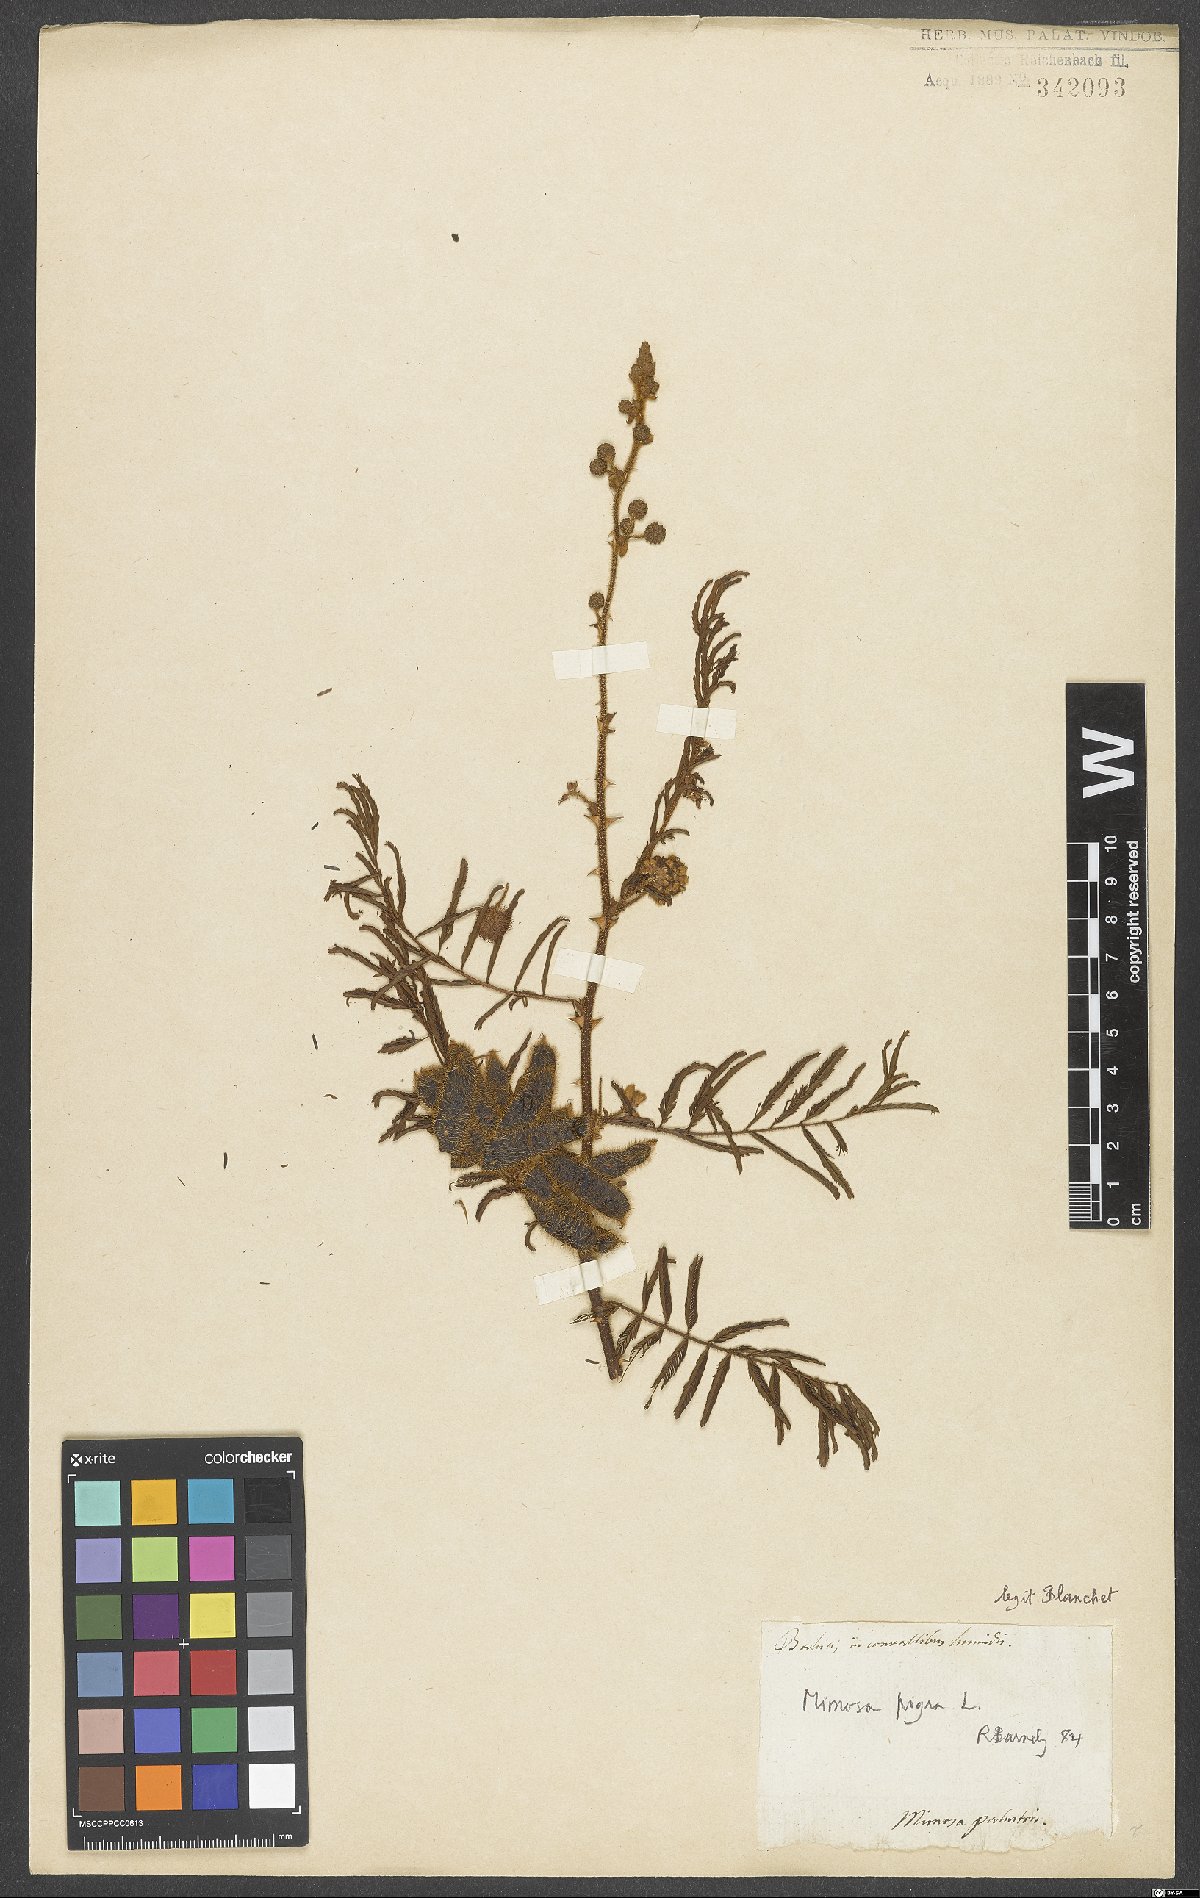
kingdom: Plantae
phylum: Tracheophyta
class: Magnoliopsida
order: Fabales
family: Fabaceae
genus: Mimosa
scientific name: Mimosa pigra
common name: Black mimosa
